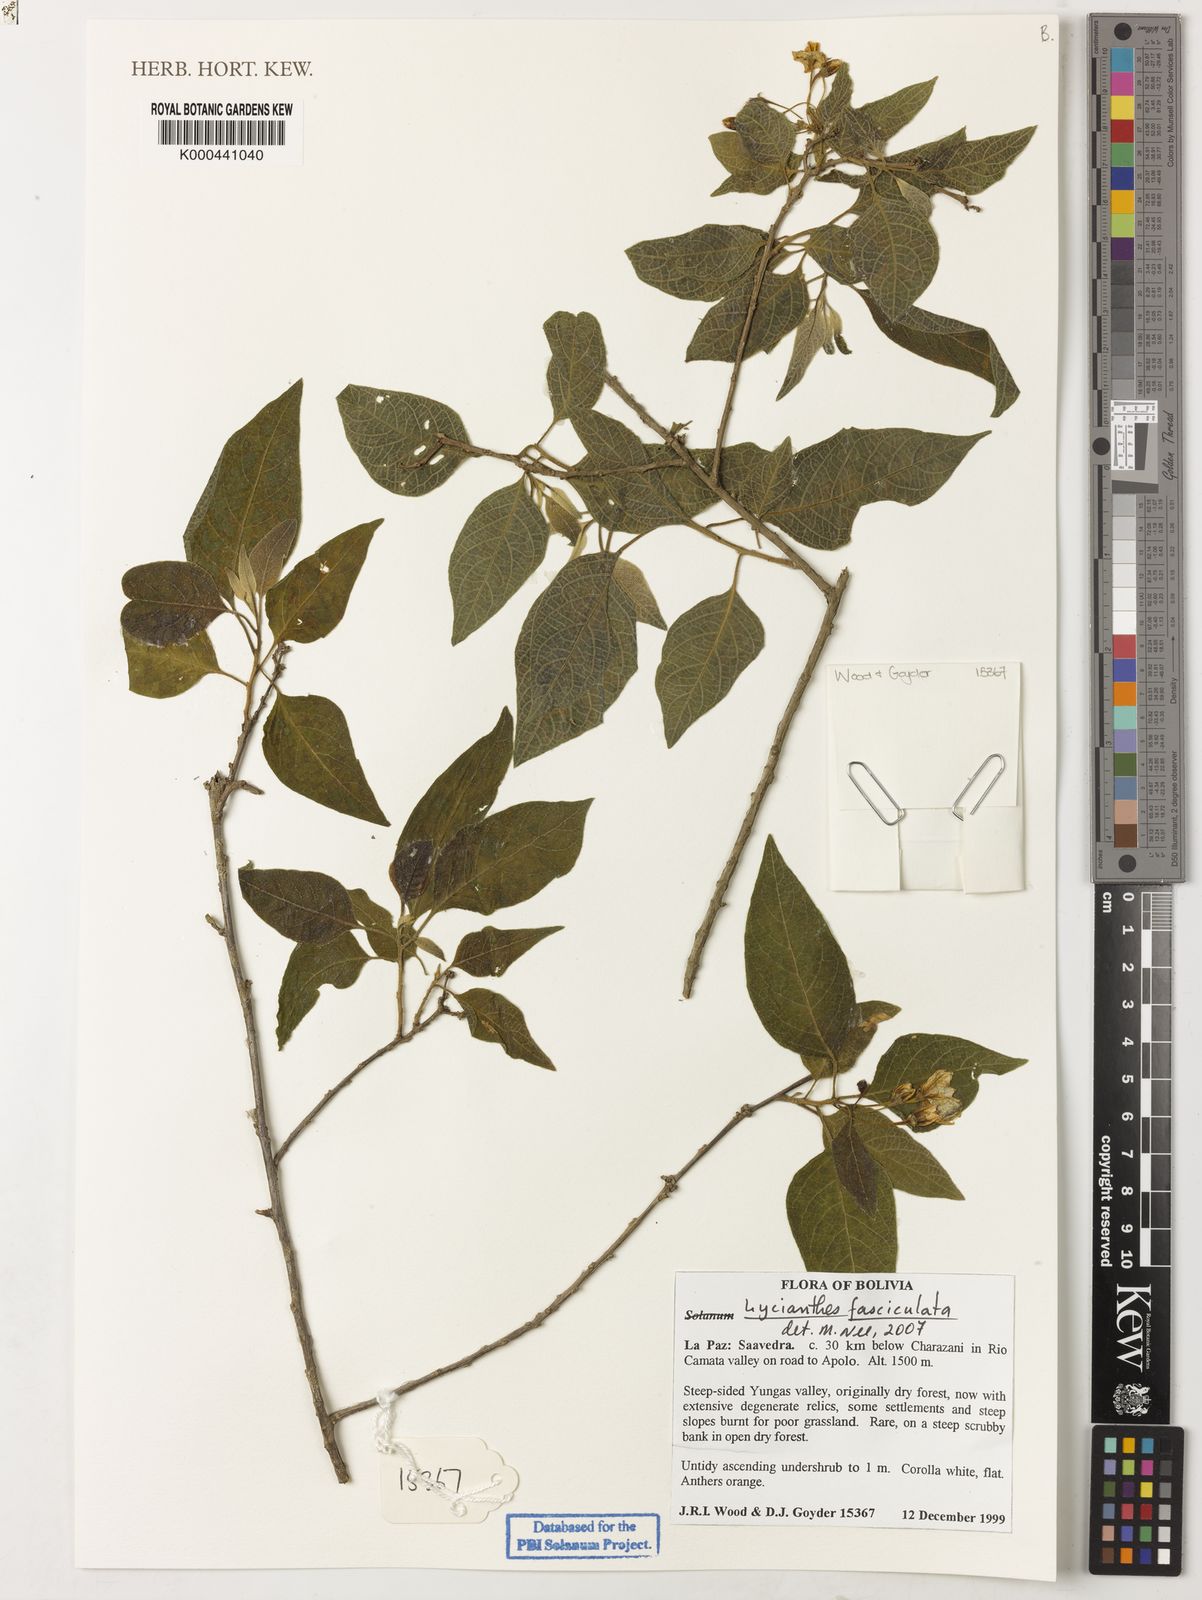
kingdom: Plantae
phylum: Tracheophyta
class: Magnoliopsida
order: Solanales
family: Solanaceae
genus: Lycianthes
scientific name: Lycianthes fasciculata
